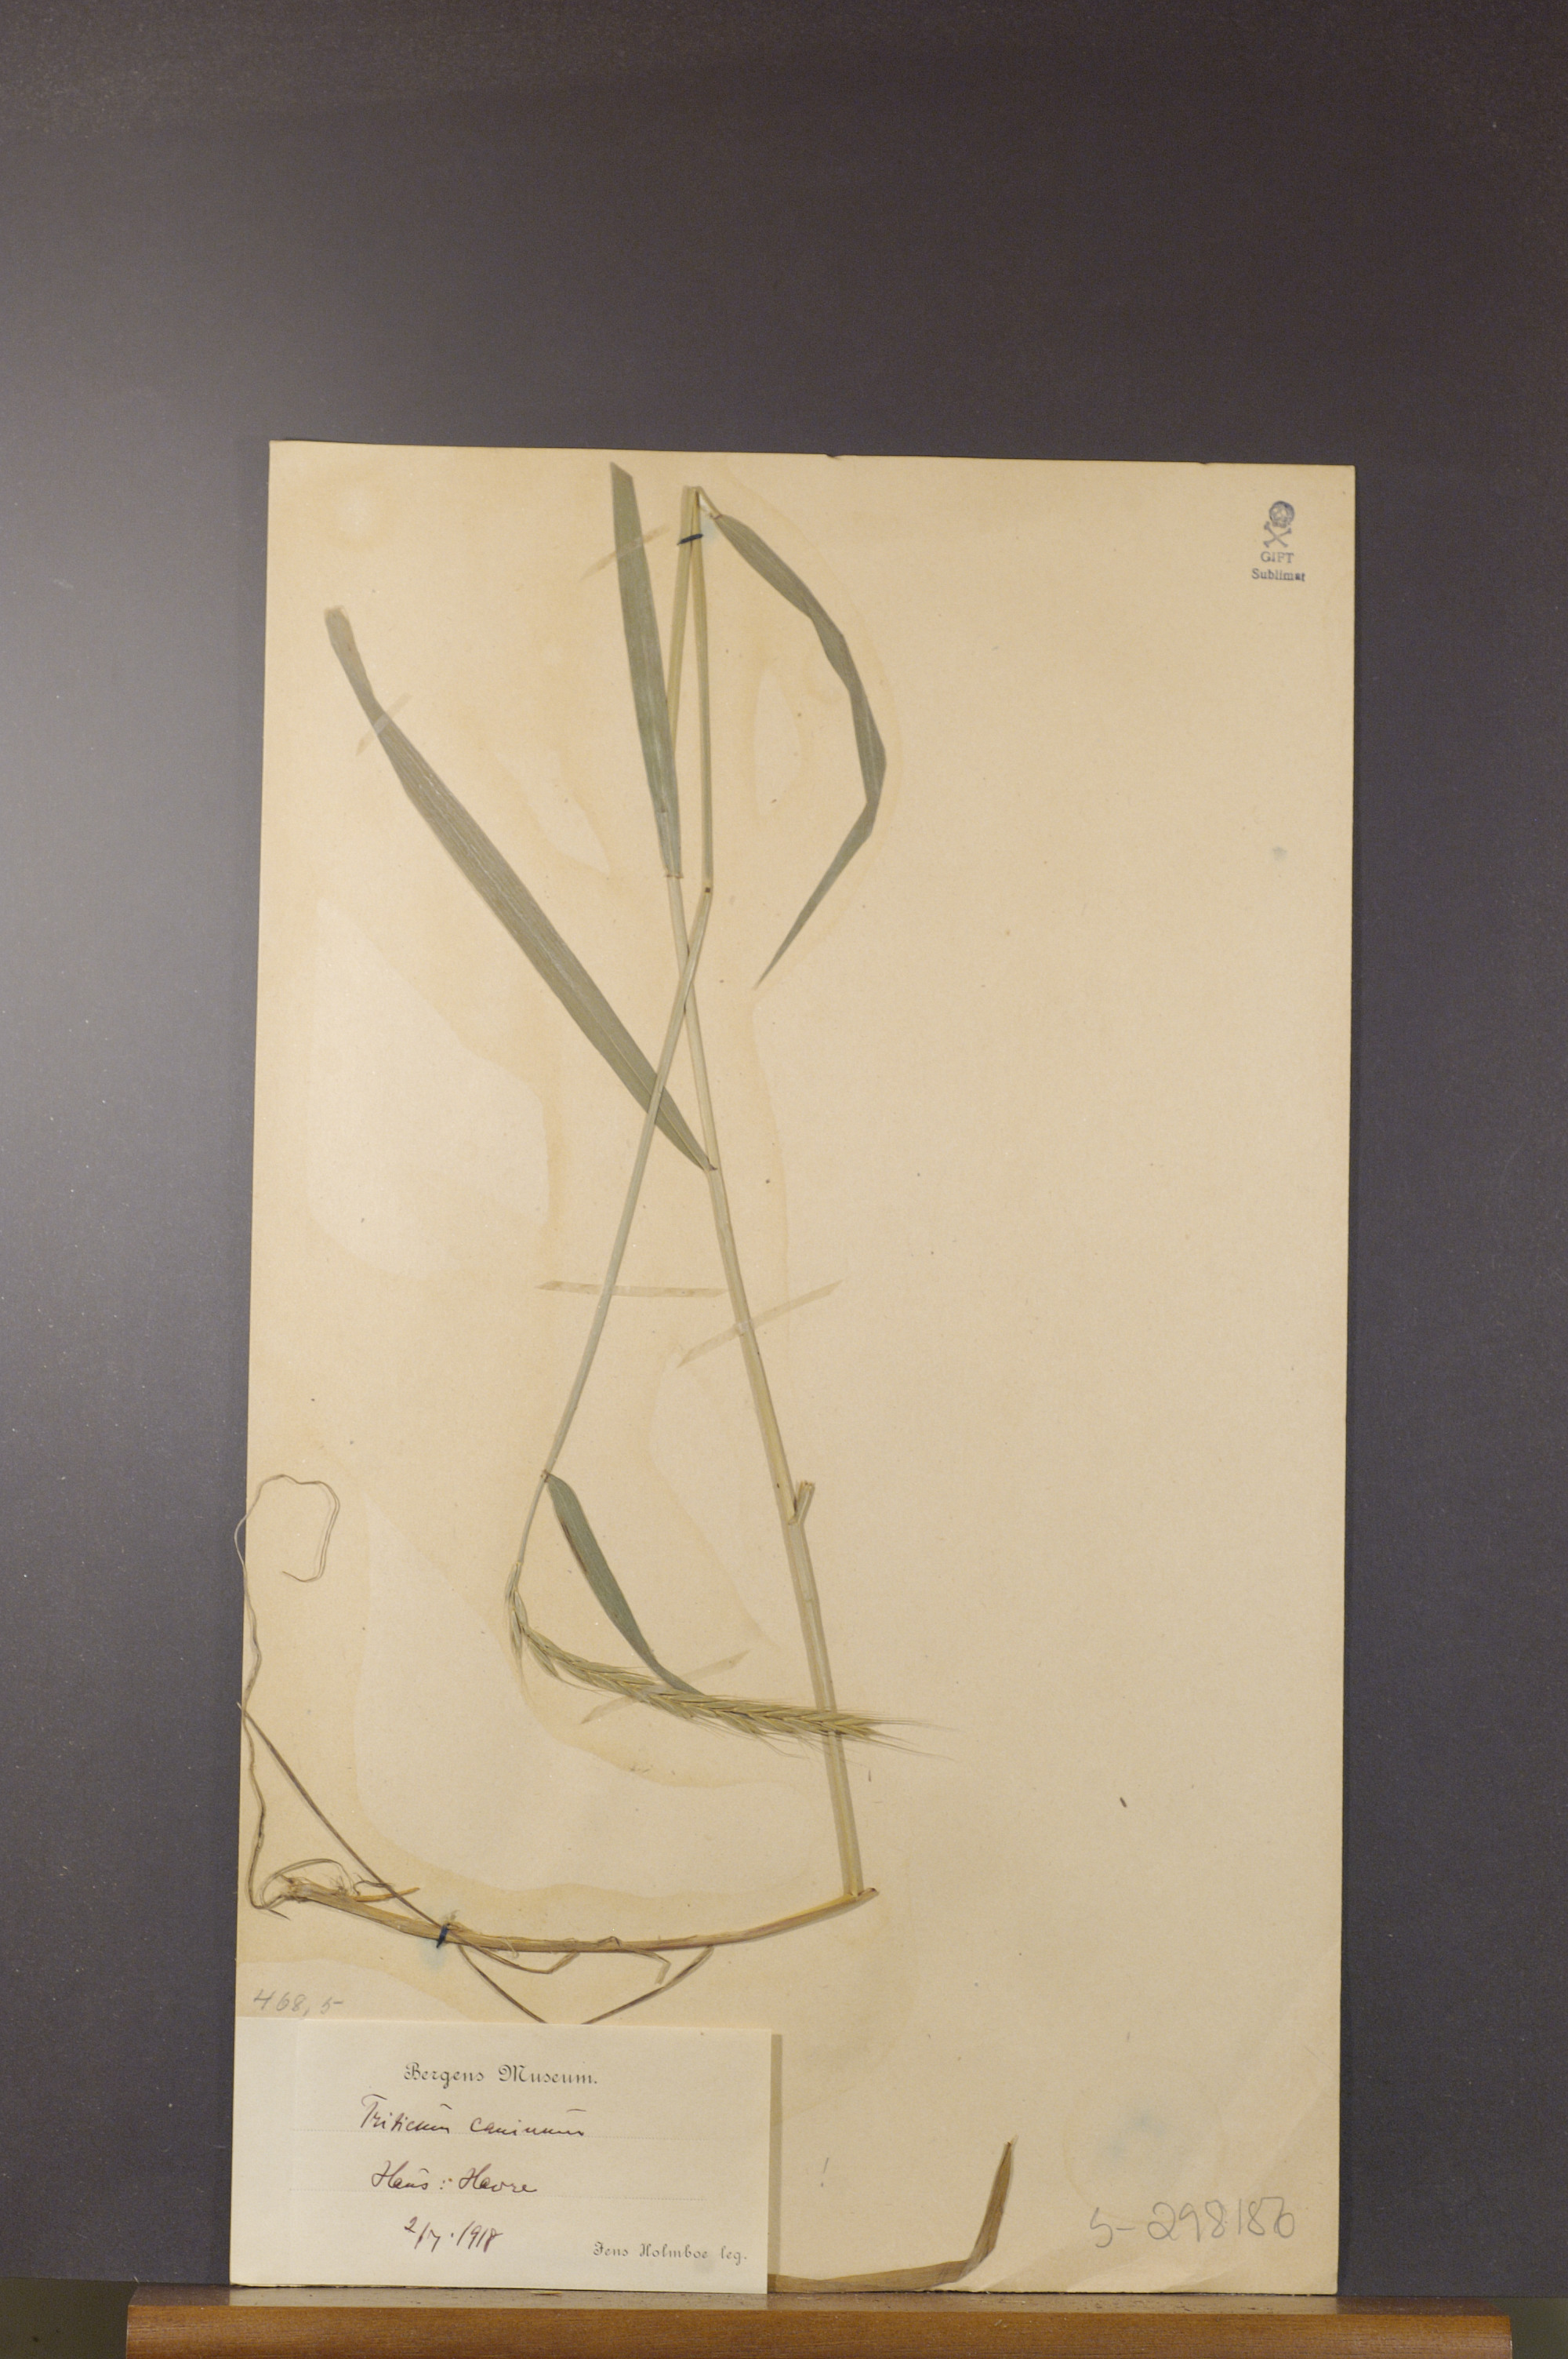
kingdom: Plantae
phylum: Tracheophyta
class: Liliopsida
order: Poales
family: Poaceae
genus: Elymus
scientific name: Elymus caninus
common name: Bearded couch
